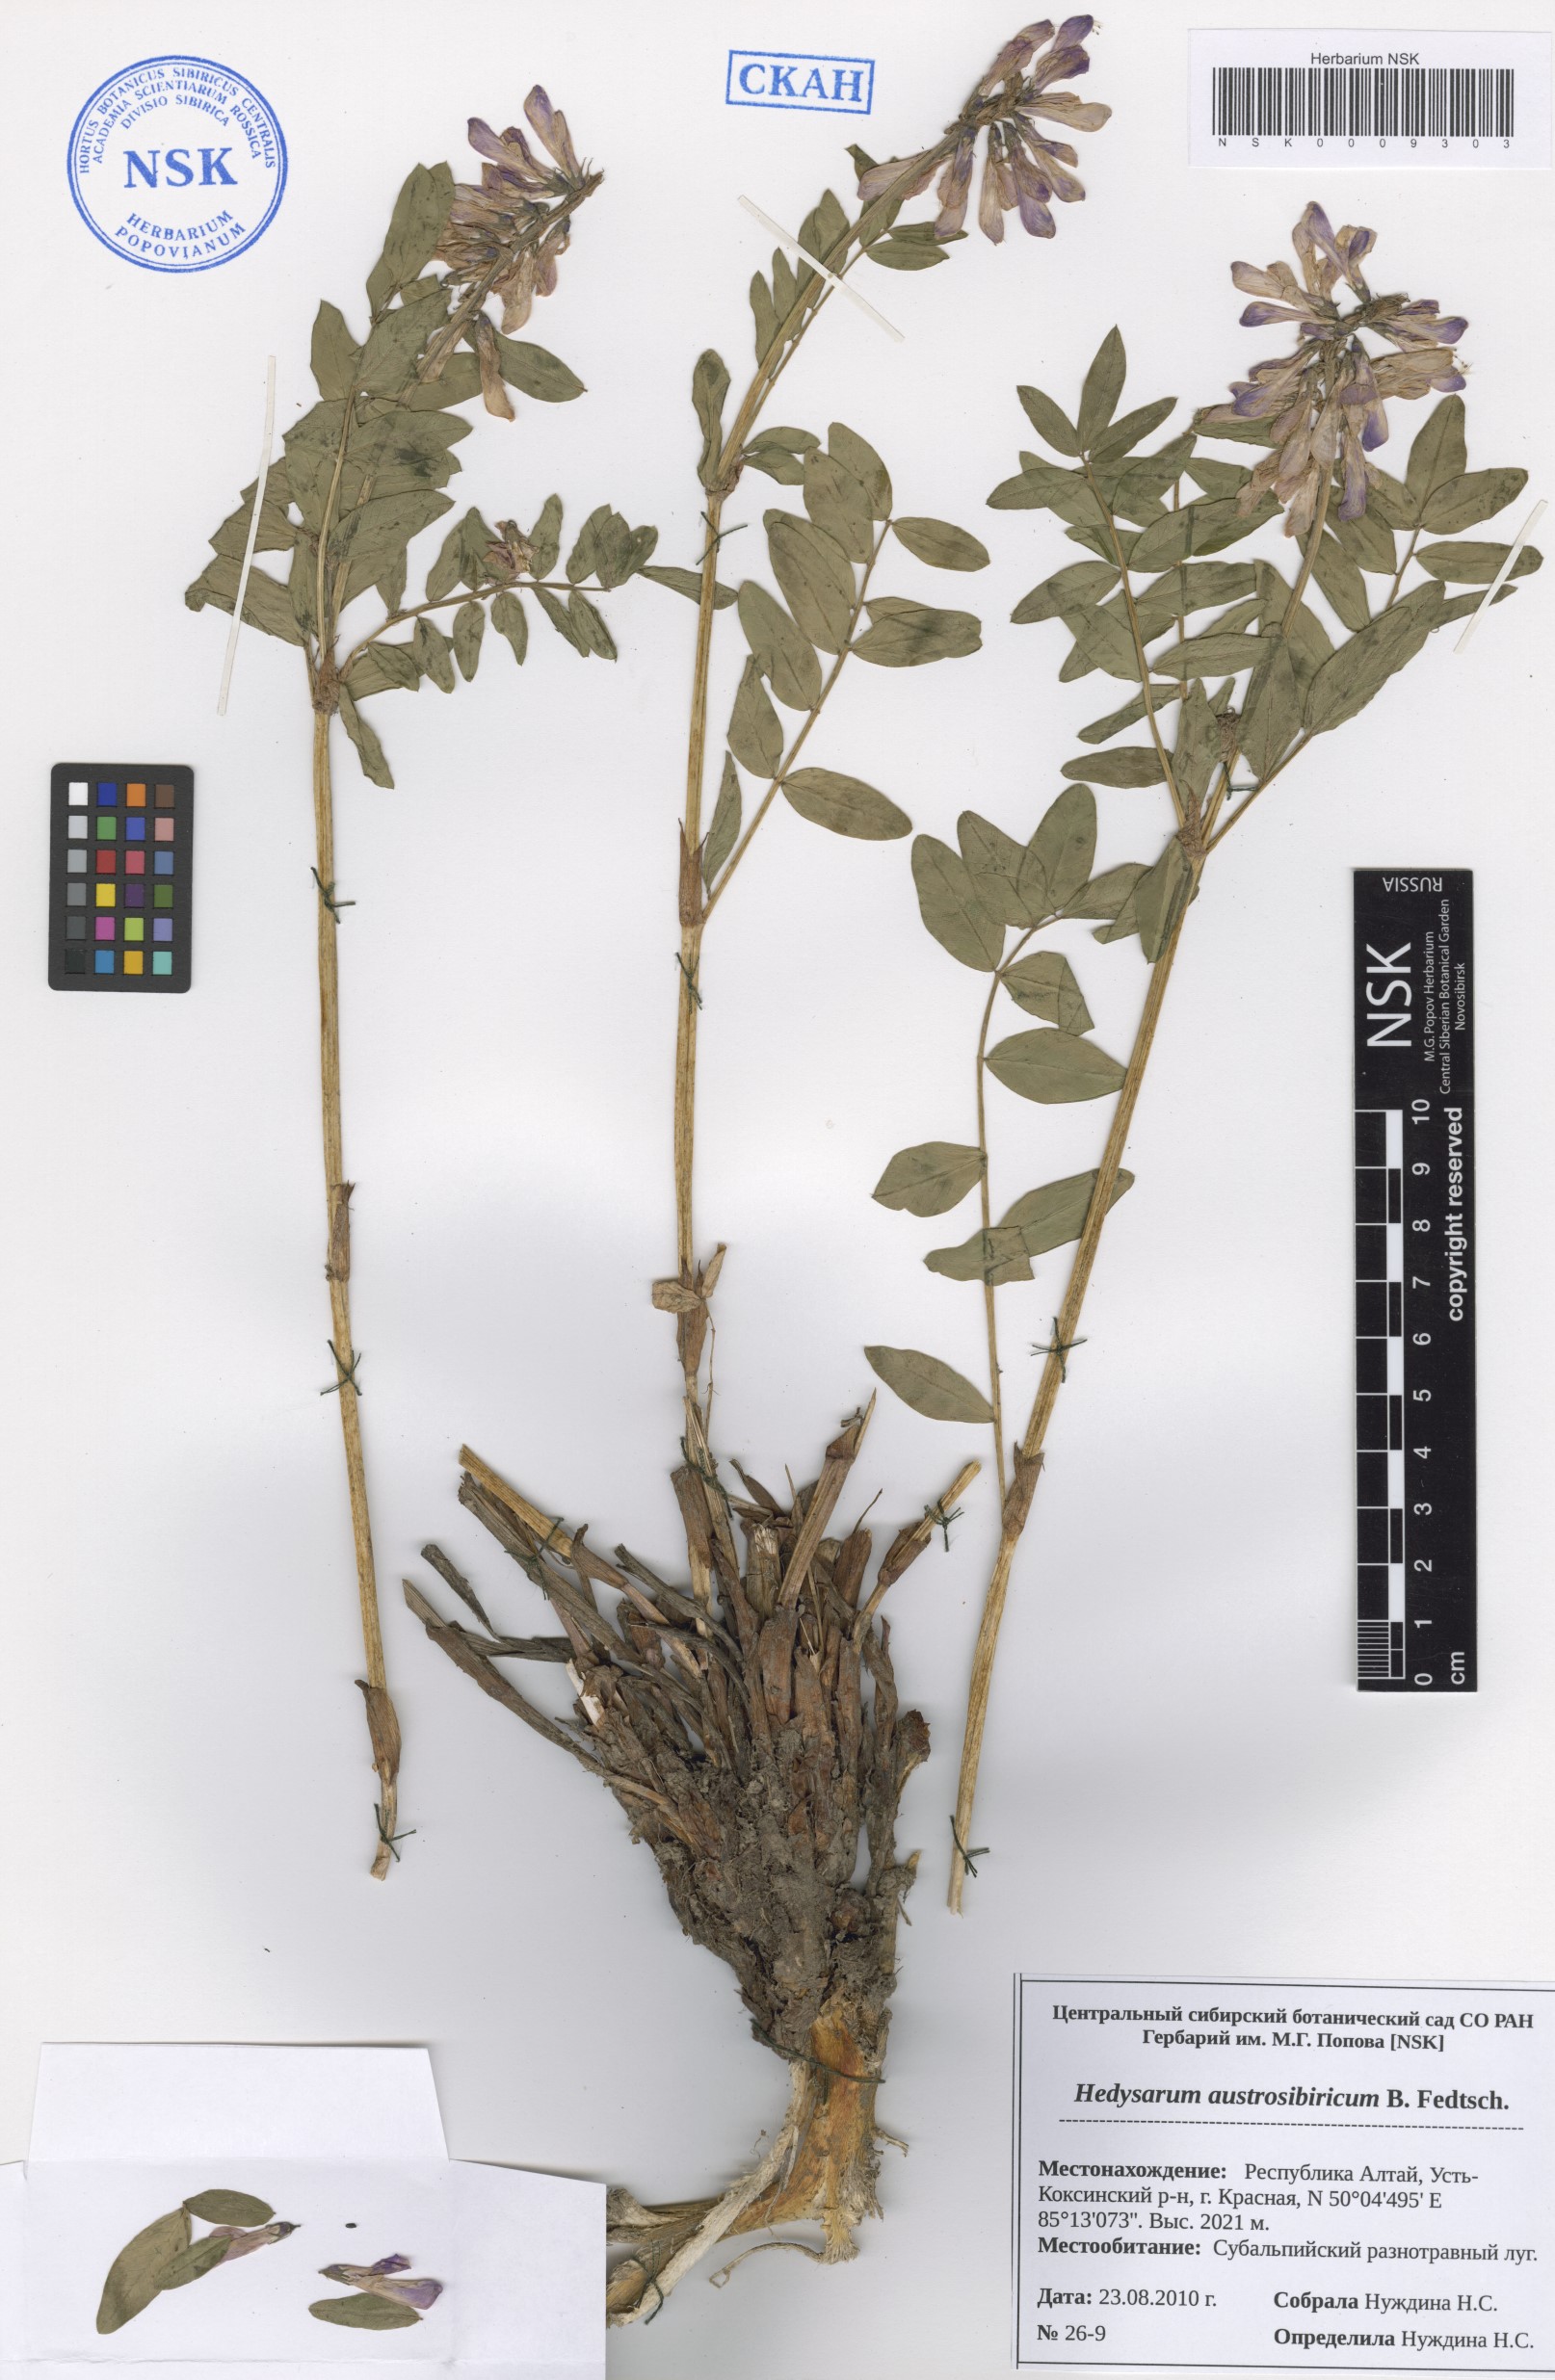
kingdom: Plantae
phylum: Tracheophyta
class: Magnoliopsida
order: Fabales
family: Fabaceae
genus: Hedysarum
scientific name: Hedysarum neglectum
